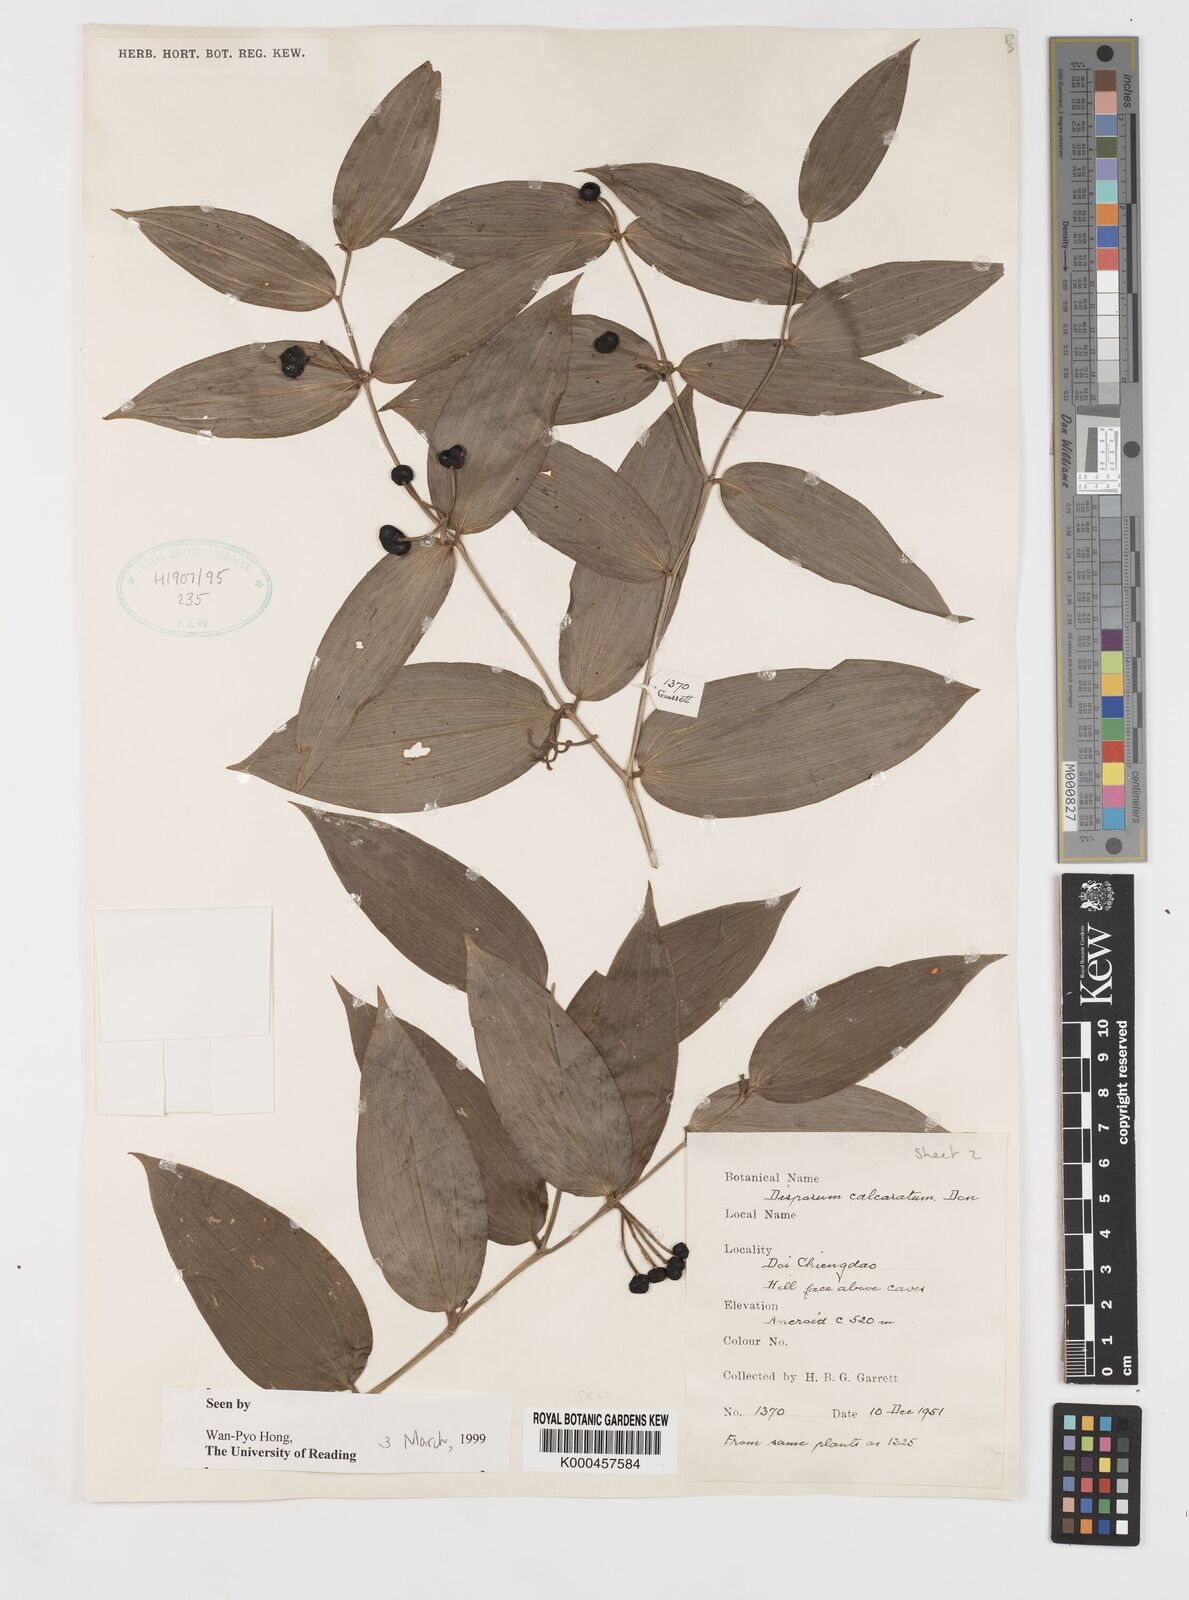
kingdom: Plantae
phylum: Tracheophyta
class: Liliopsida
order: Liliales
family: Colchicaceae
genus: Disporum
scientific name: Disporum calcaratum
